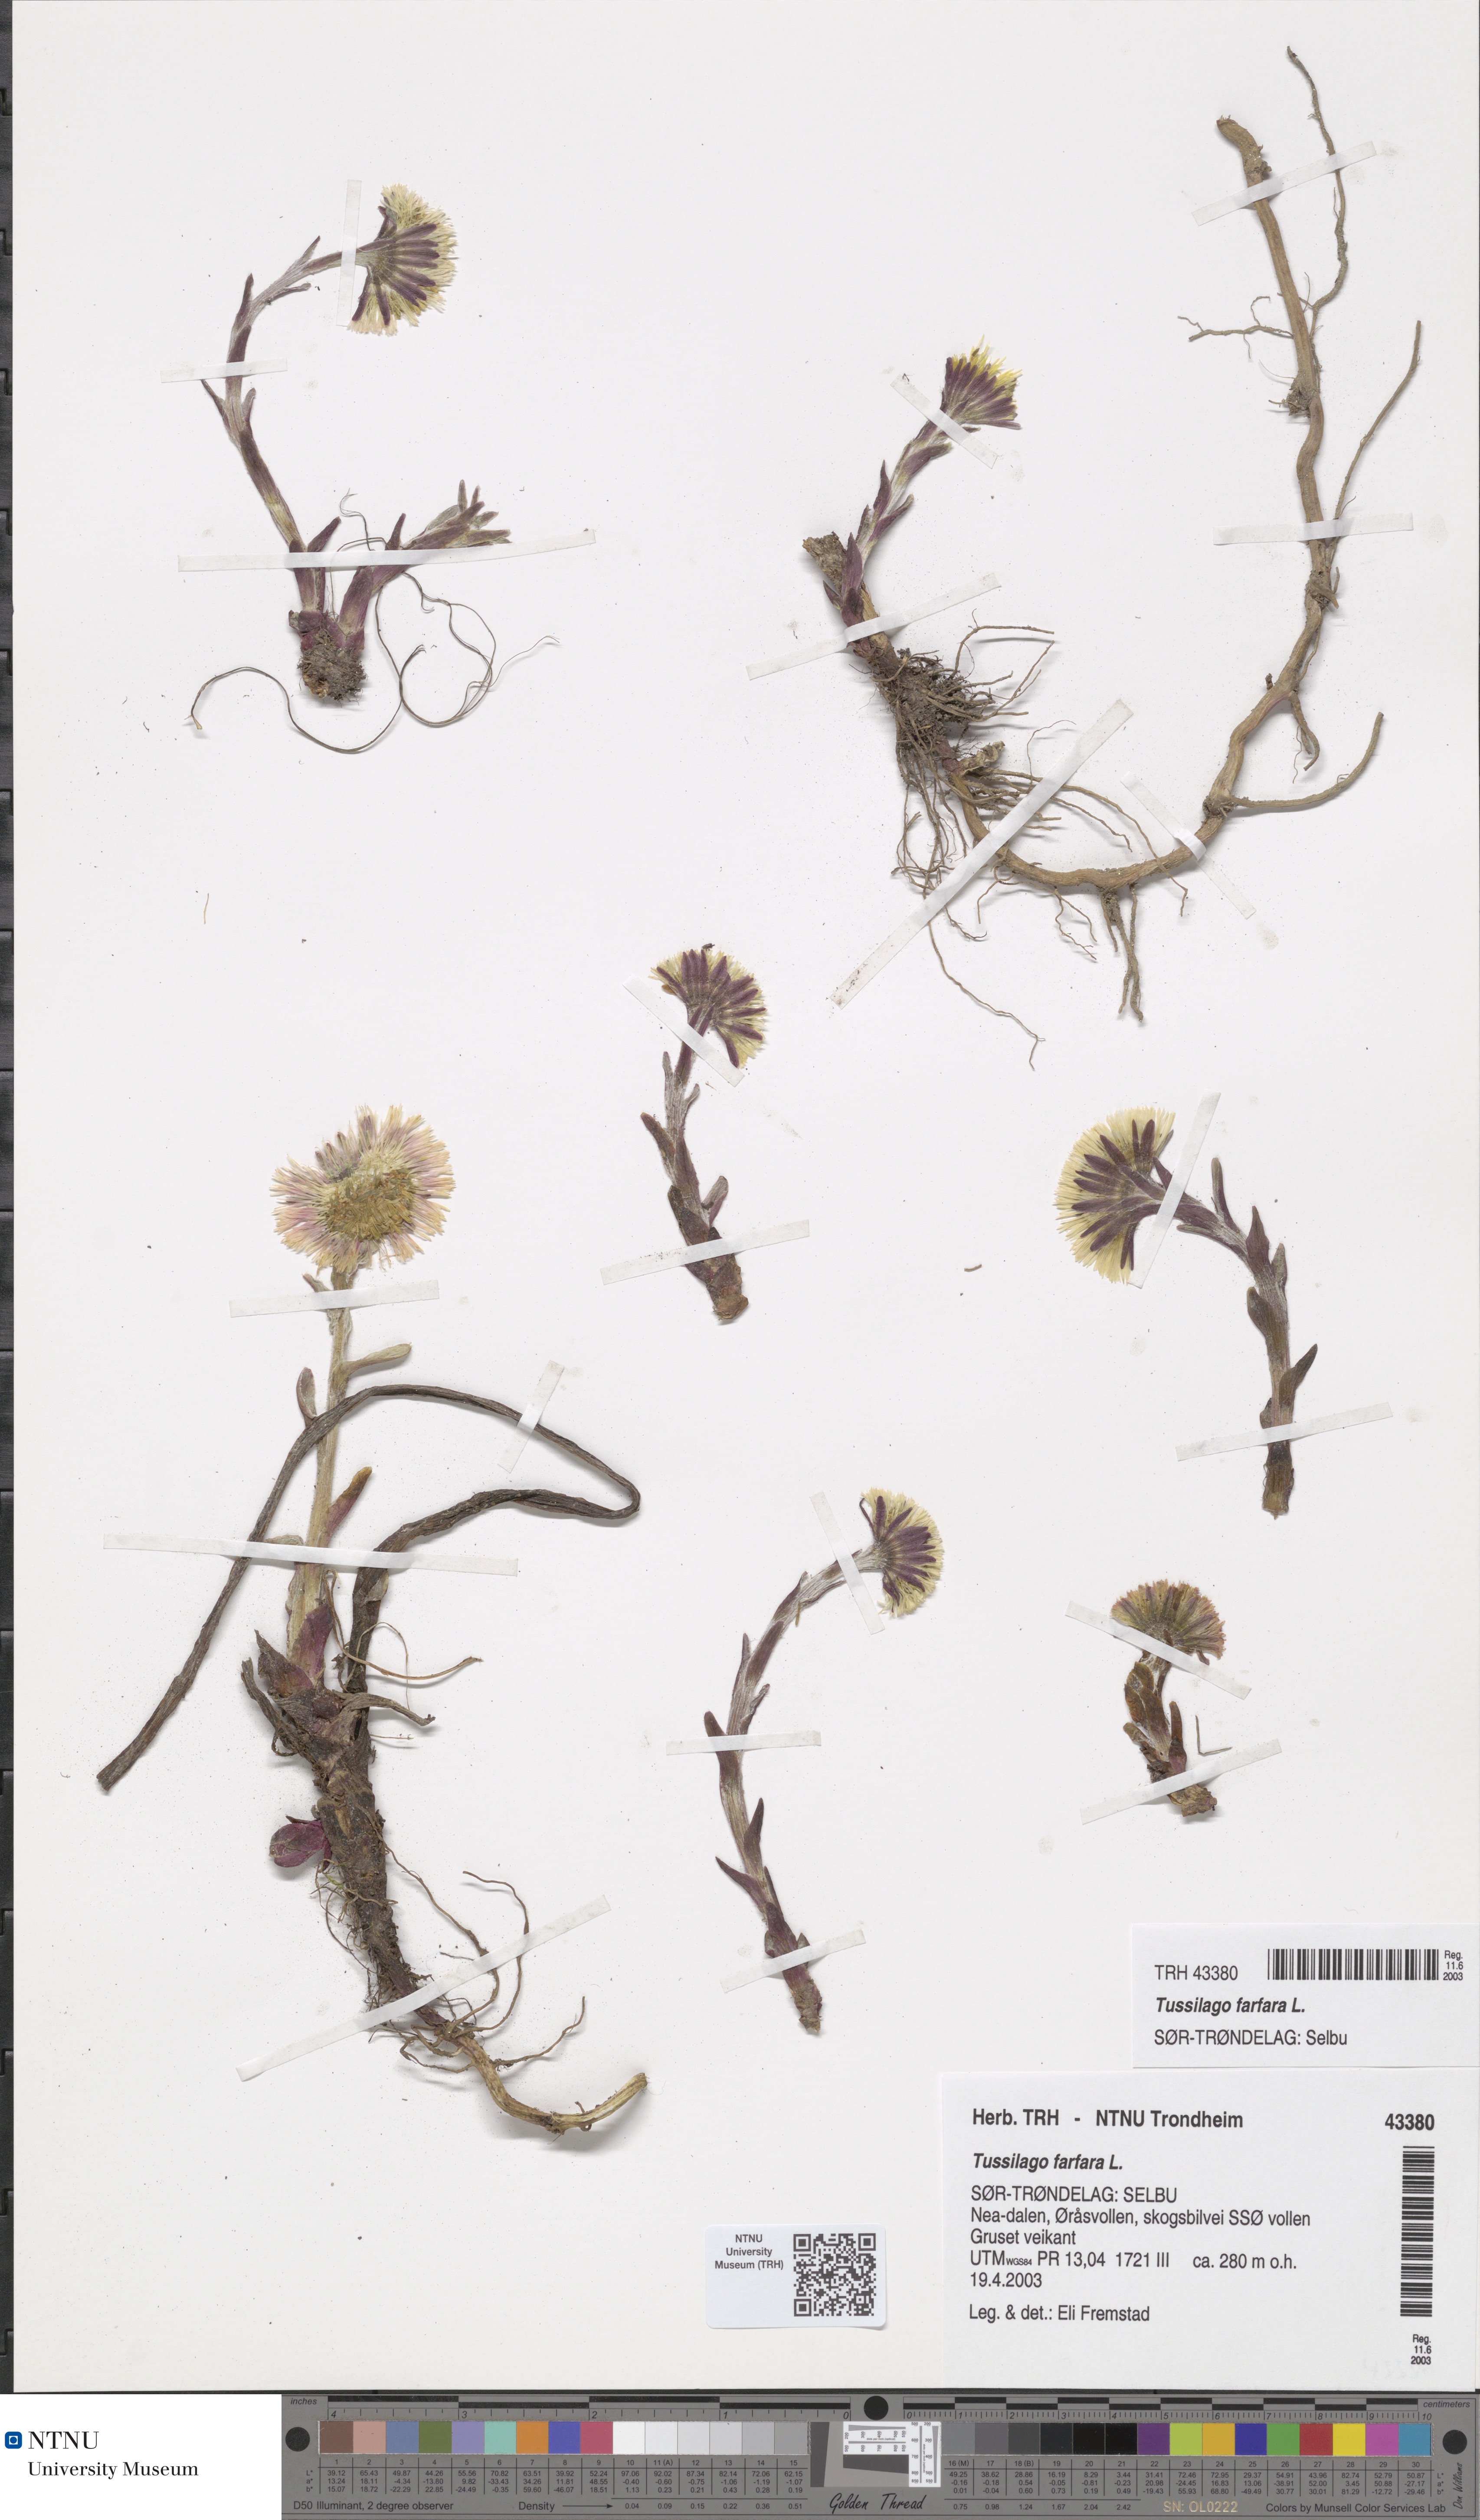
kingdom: Plantae
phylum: Tracheophyta
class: Magnoliopsida
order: Asterales
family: Asteraceae
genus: Tussilago
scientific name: Tussilago farfara
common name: Coltsfoot
